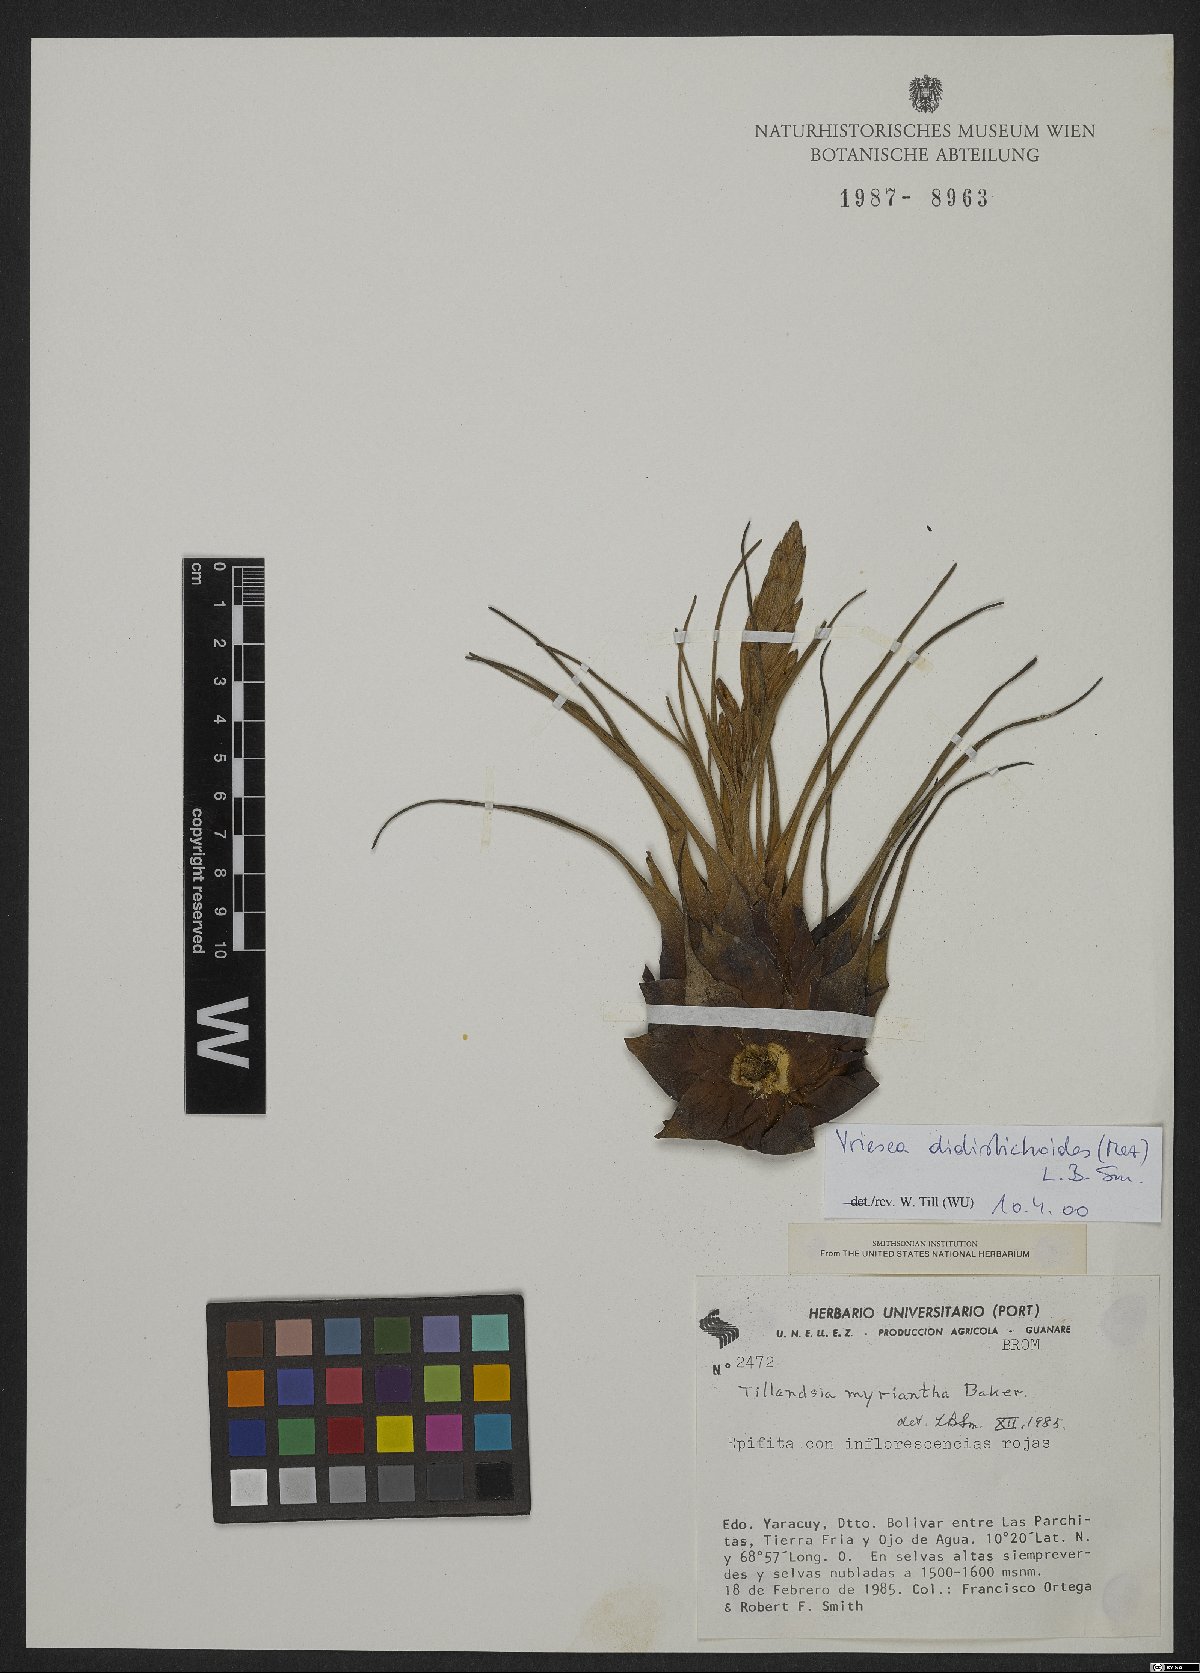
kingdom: Plantae
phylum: Tracheophyta
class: Liliopsida
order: Poales
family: Bromeliaceae
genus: Tillandsia
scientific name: Tillandsia paraensis
